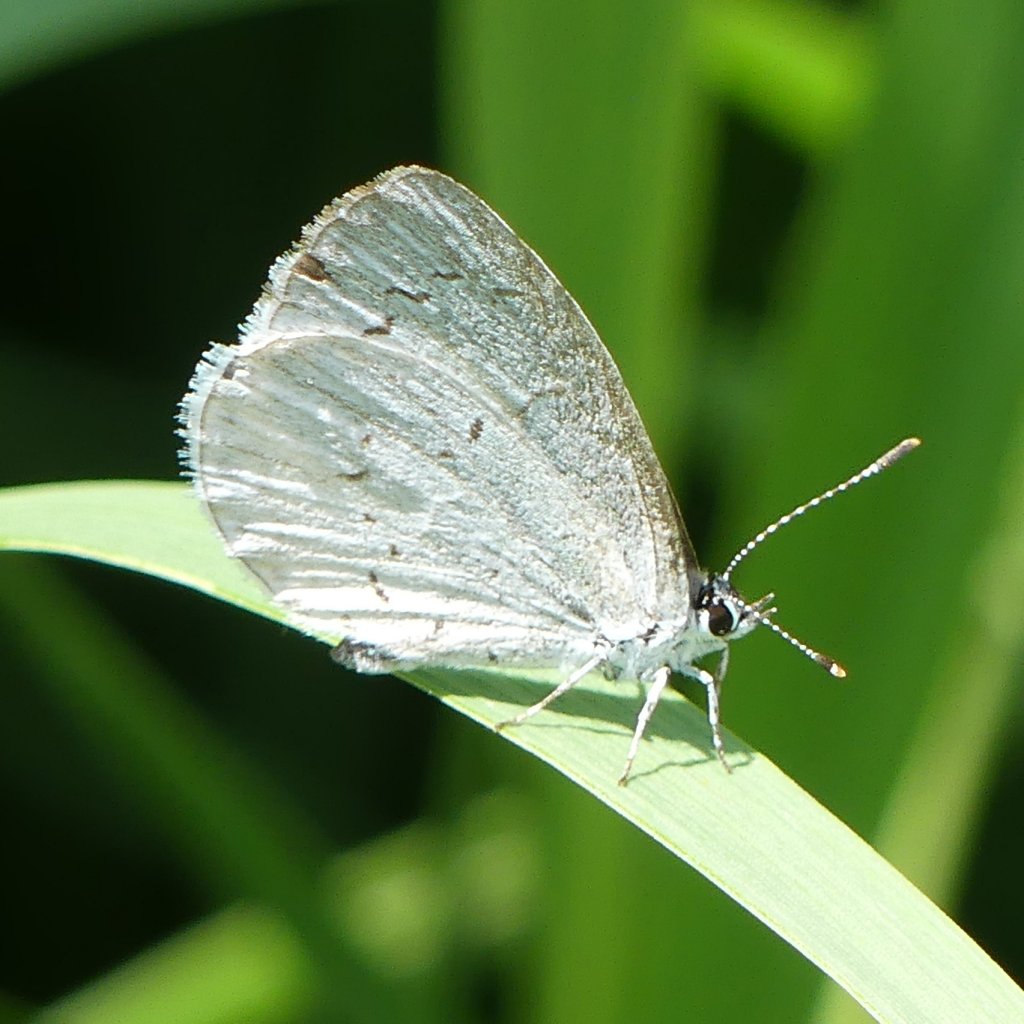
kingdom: Animalia
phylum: Arthropoda
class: Insecta
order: Lepidoptera
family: Lycaenidae
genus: Cyaniris
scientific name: Cyaniris neglecta
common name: Summer Azure
